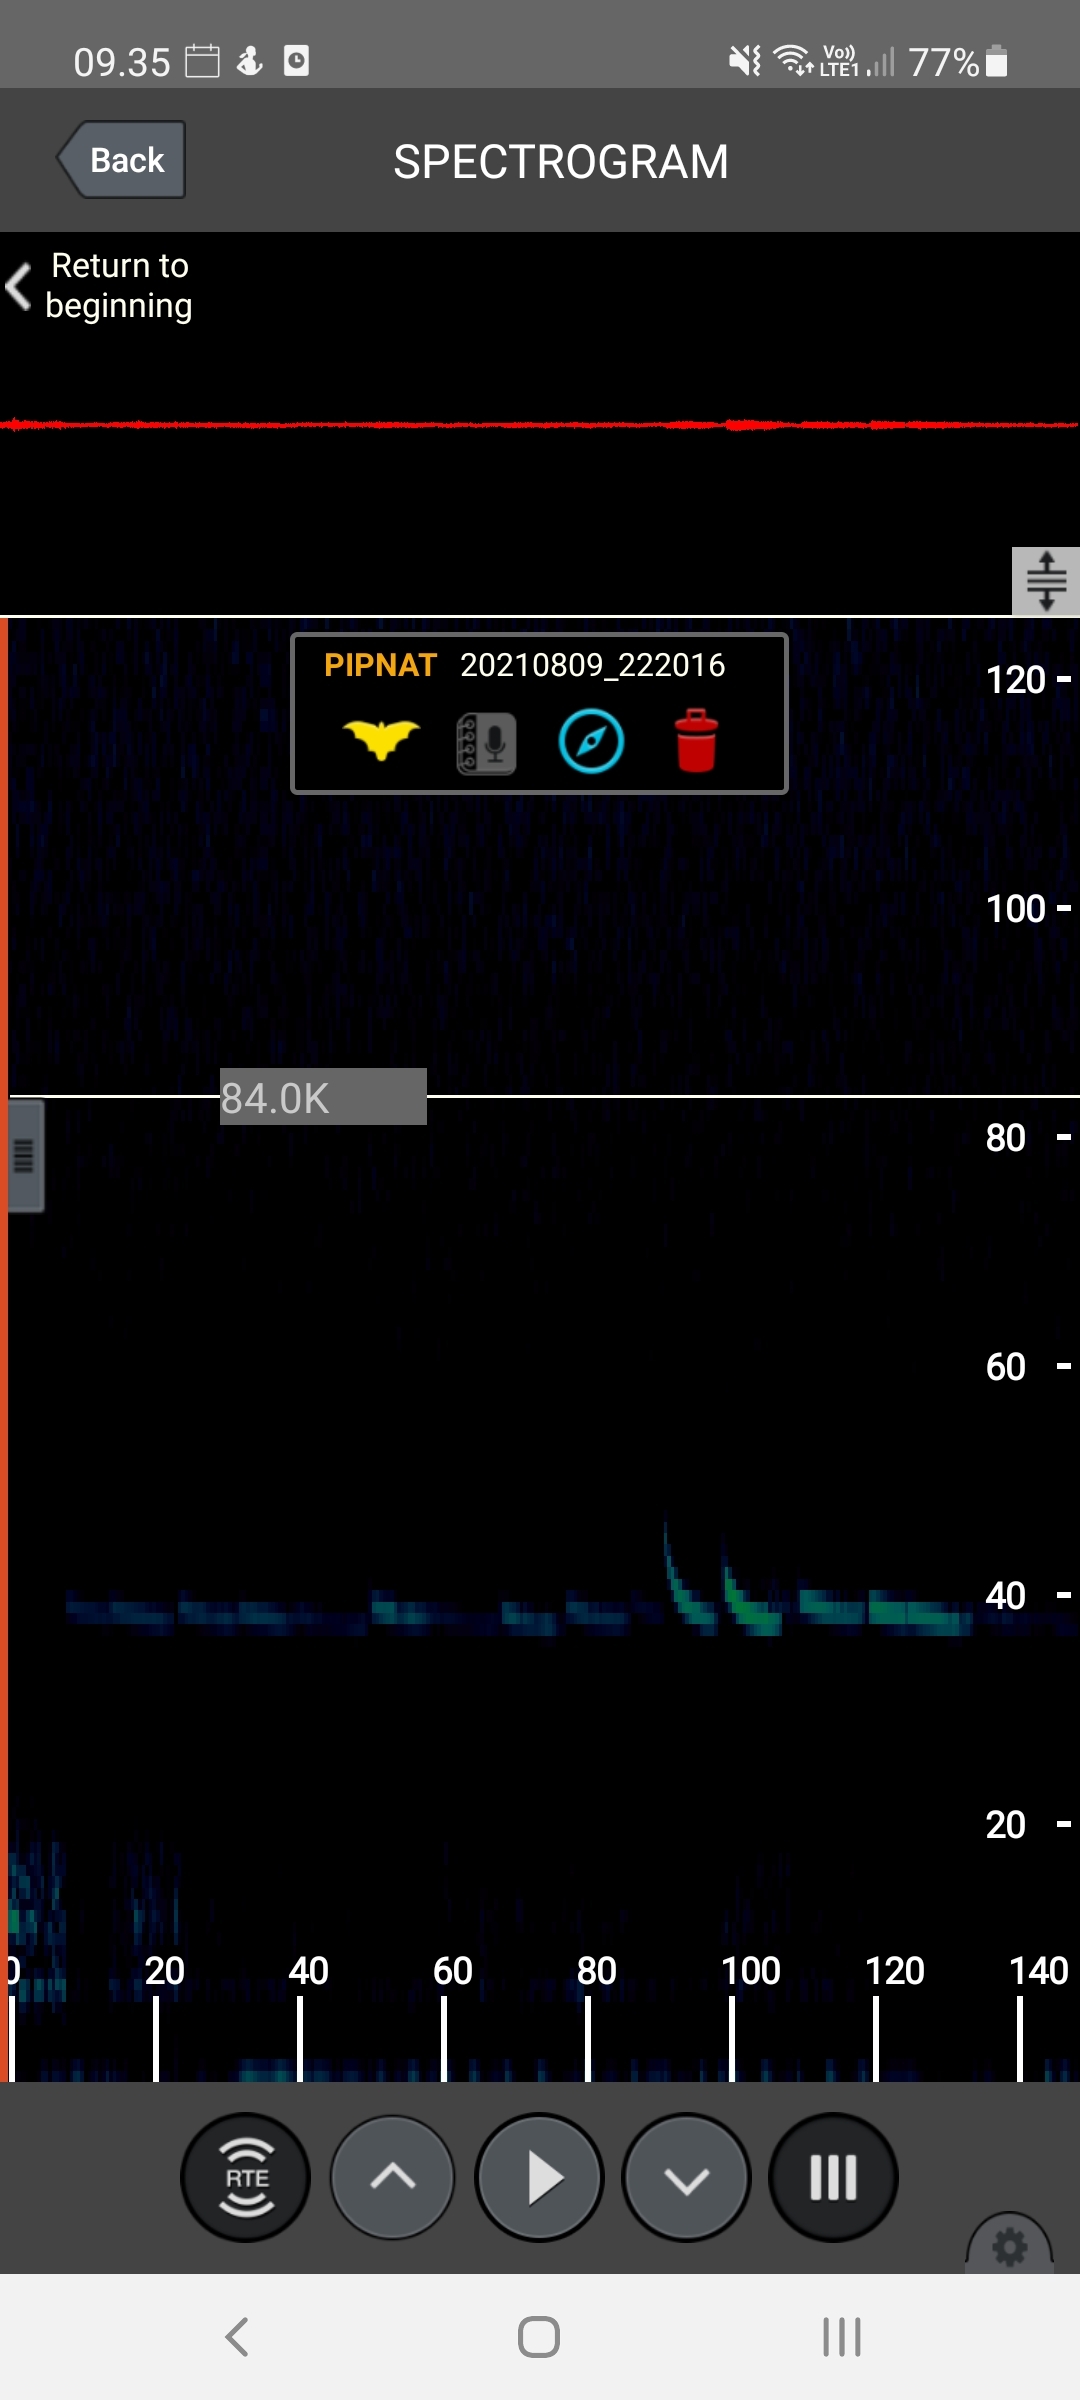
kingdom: Animalia
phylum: Chordata
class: Mammalia
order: Chiroptera
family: Vespertilionidae
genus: Pipistrellus
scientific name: Pipistrellus nathusii
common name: Troldflagermus
